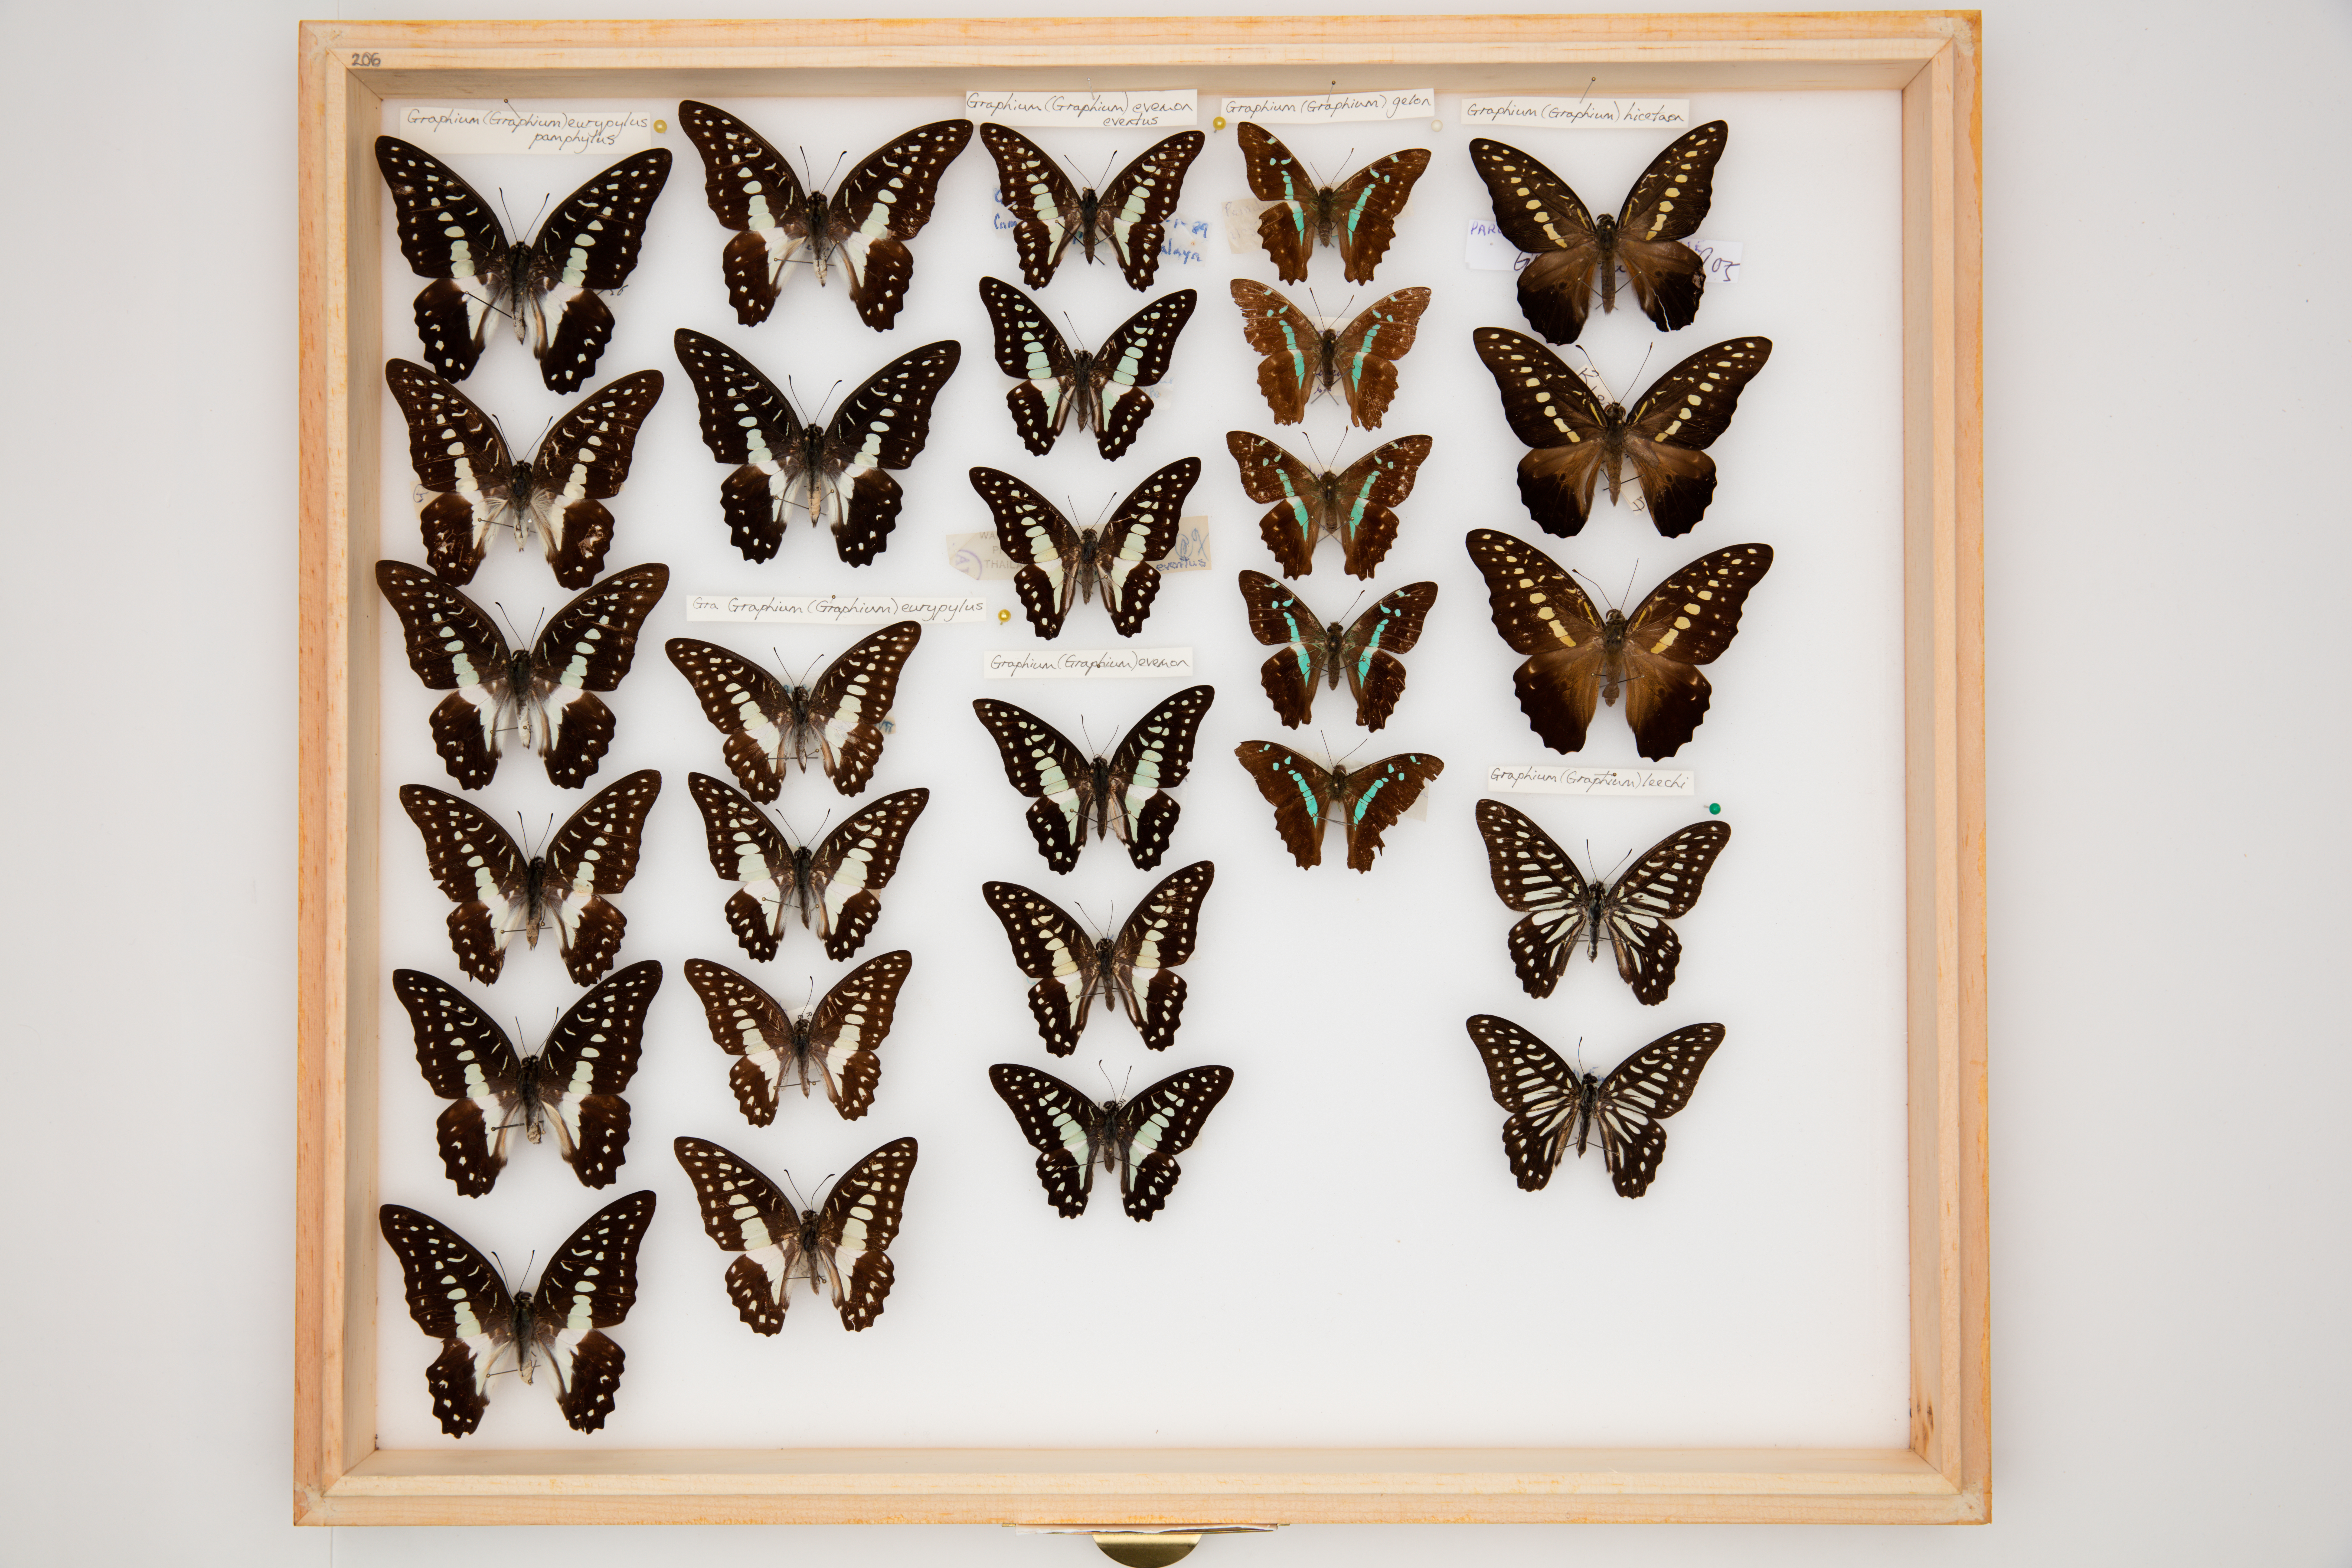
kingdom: Animalia
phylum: Arthropoda
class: Insecta
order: Lepidoptera
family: Papilionidae
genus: Graphium
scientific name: Graphium eurypylus
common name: Great jay
